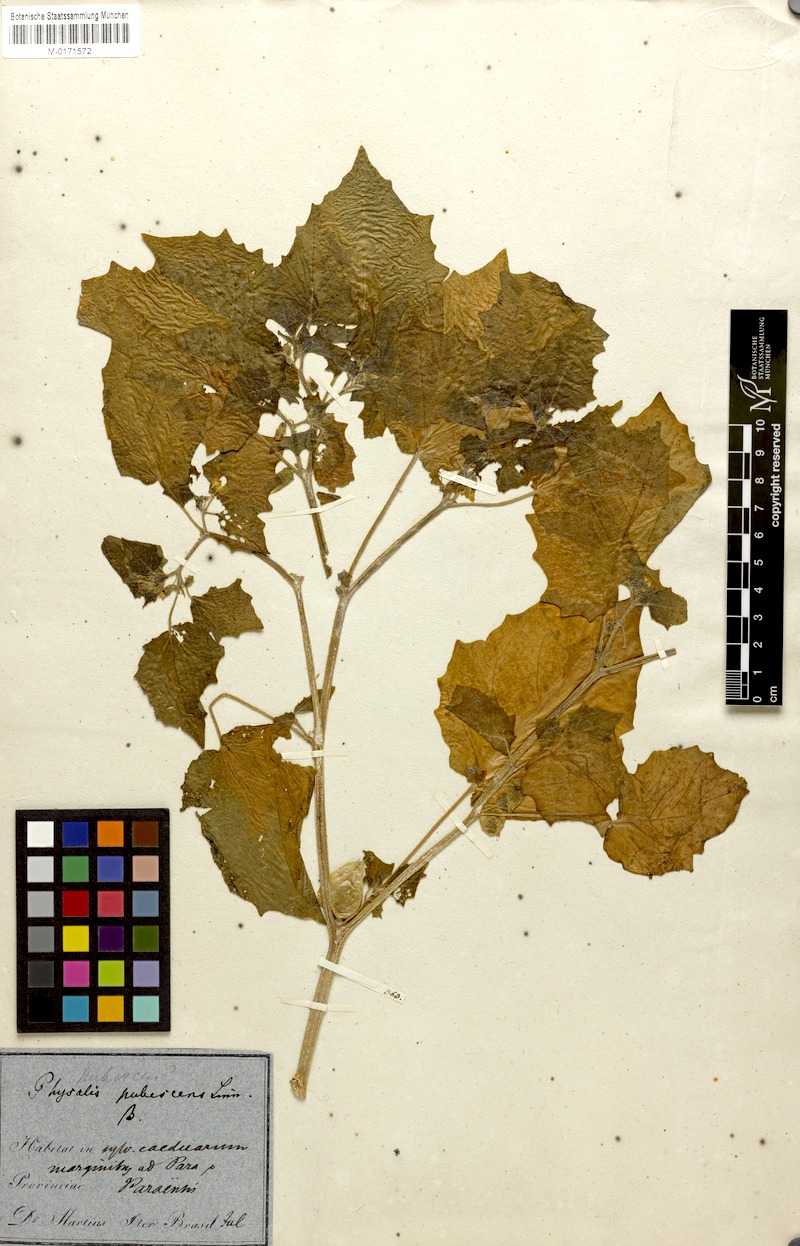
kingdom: Plantae
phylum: Tracheophyta
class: Magnoliopsida
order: Solanales
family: Solanaceae
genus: Physalis
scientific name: Physalis pubescens
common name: Downy ground-cherry
